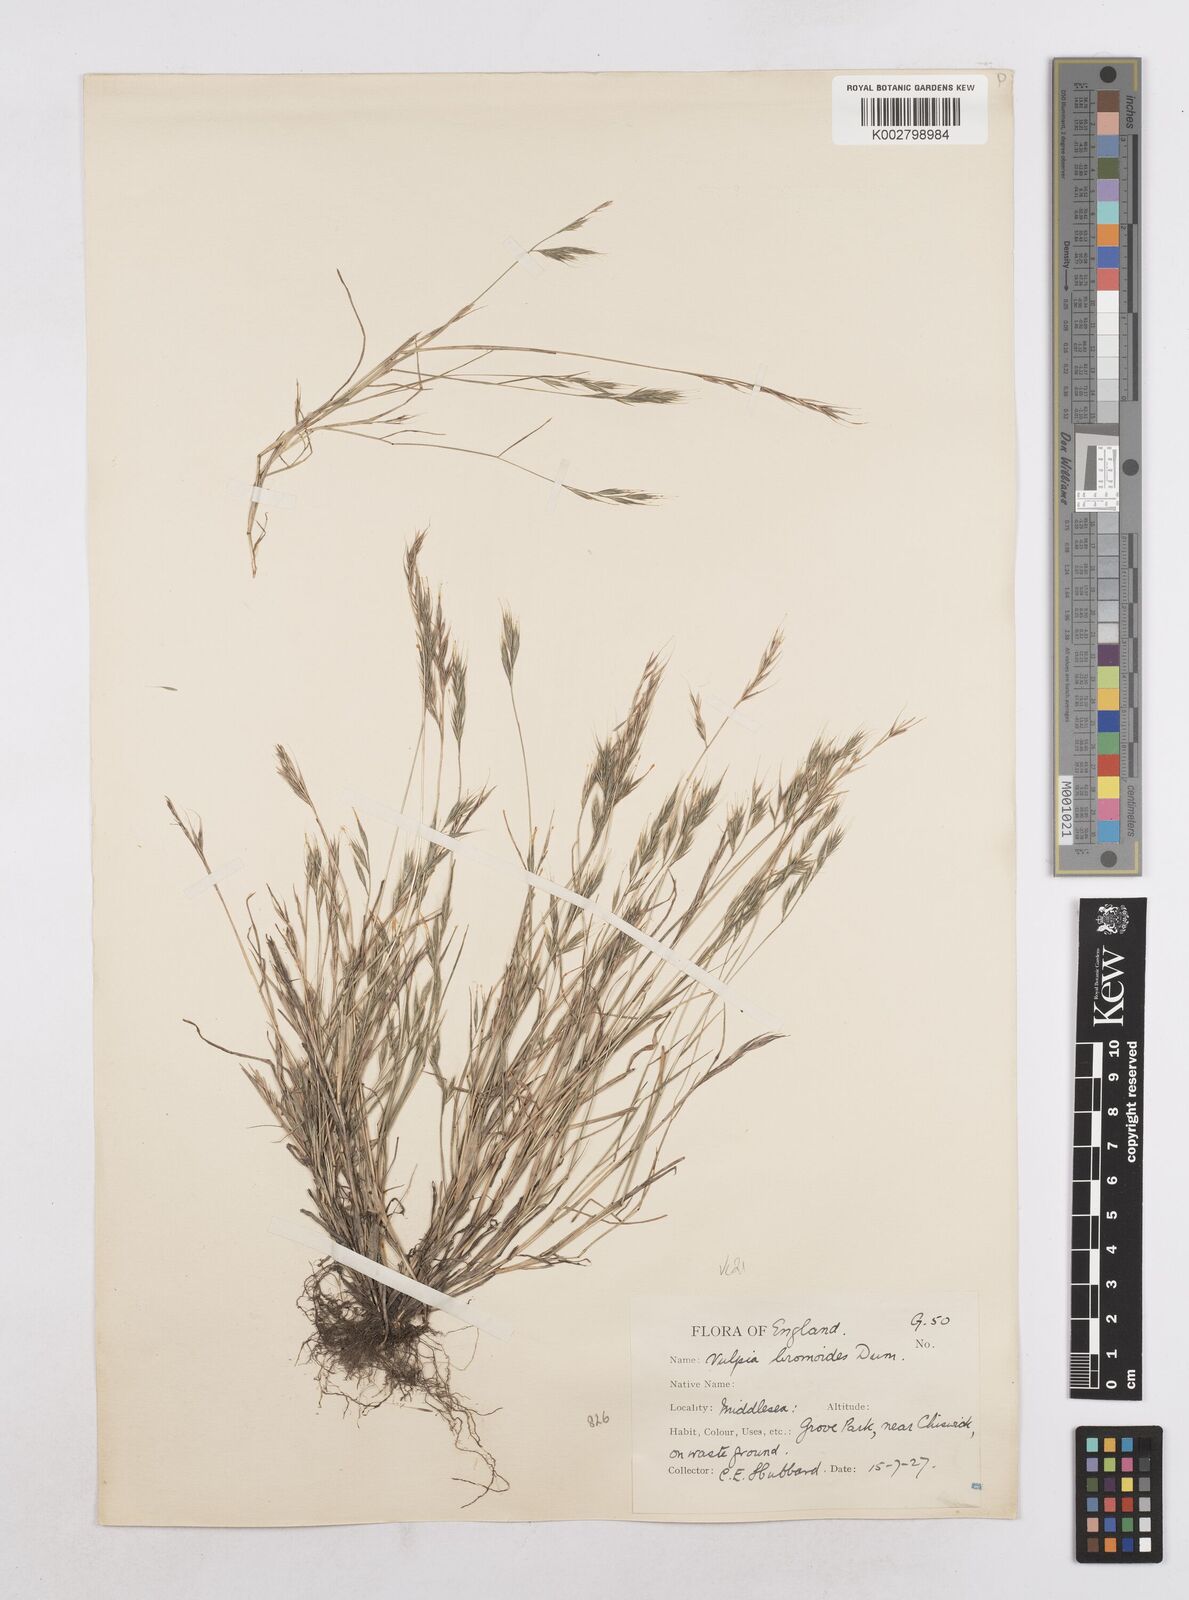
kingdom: Plantae
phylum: Tracheophyta
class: Liliopsida
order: Poales
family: Poaceae
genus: Festuca
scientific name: Festuca bromoides
